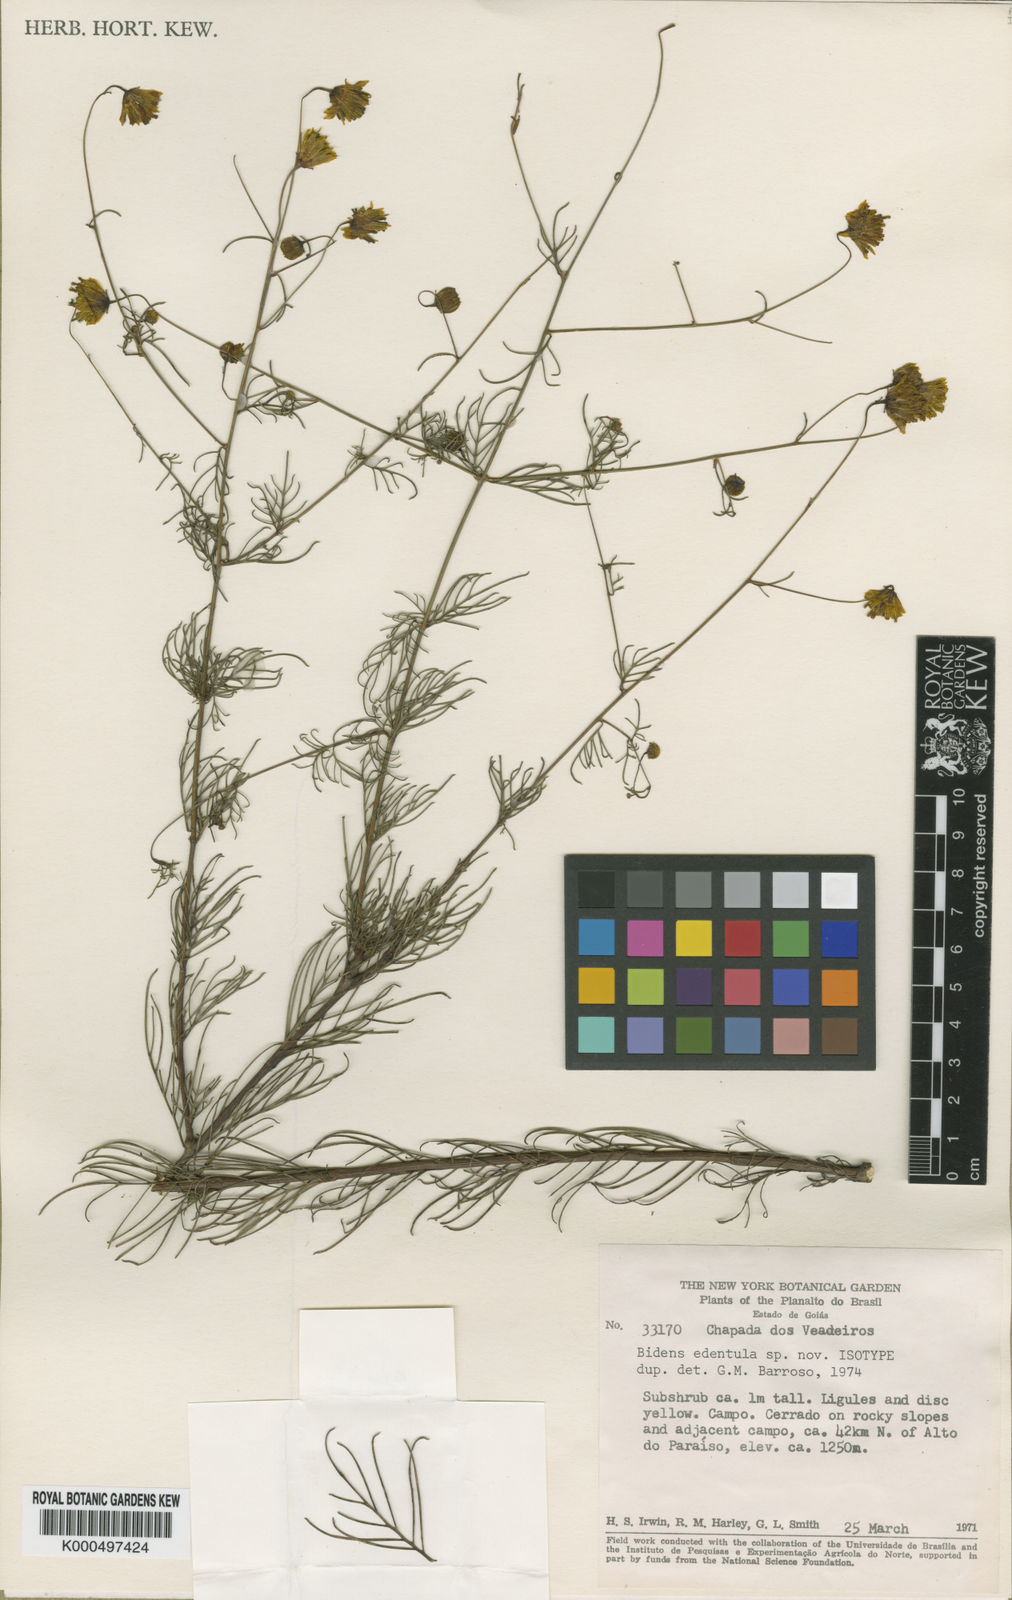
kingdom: Plantae
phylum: Tracheophyta
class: Magnoliopsida
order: Asterales
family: Asteraceae
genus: Bidens
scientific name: Bidens edentula
